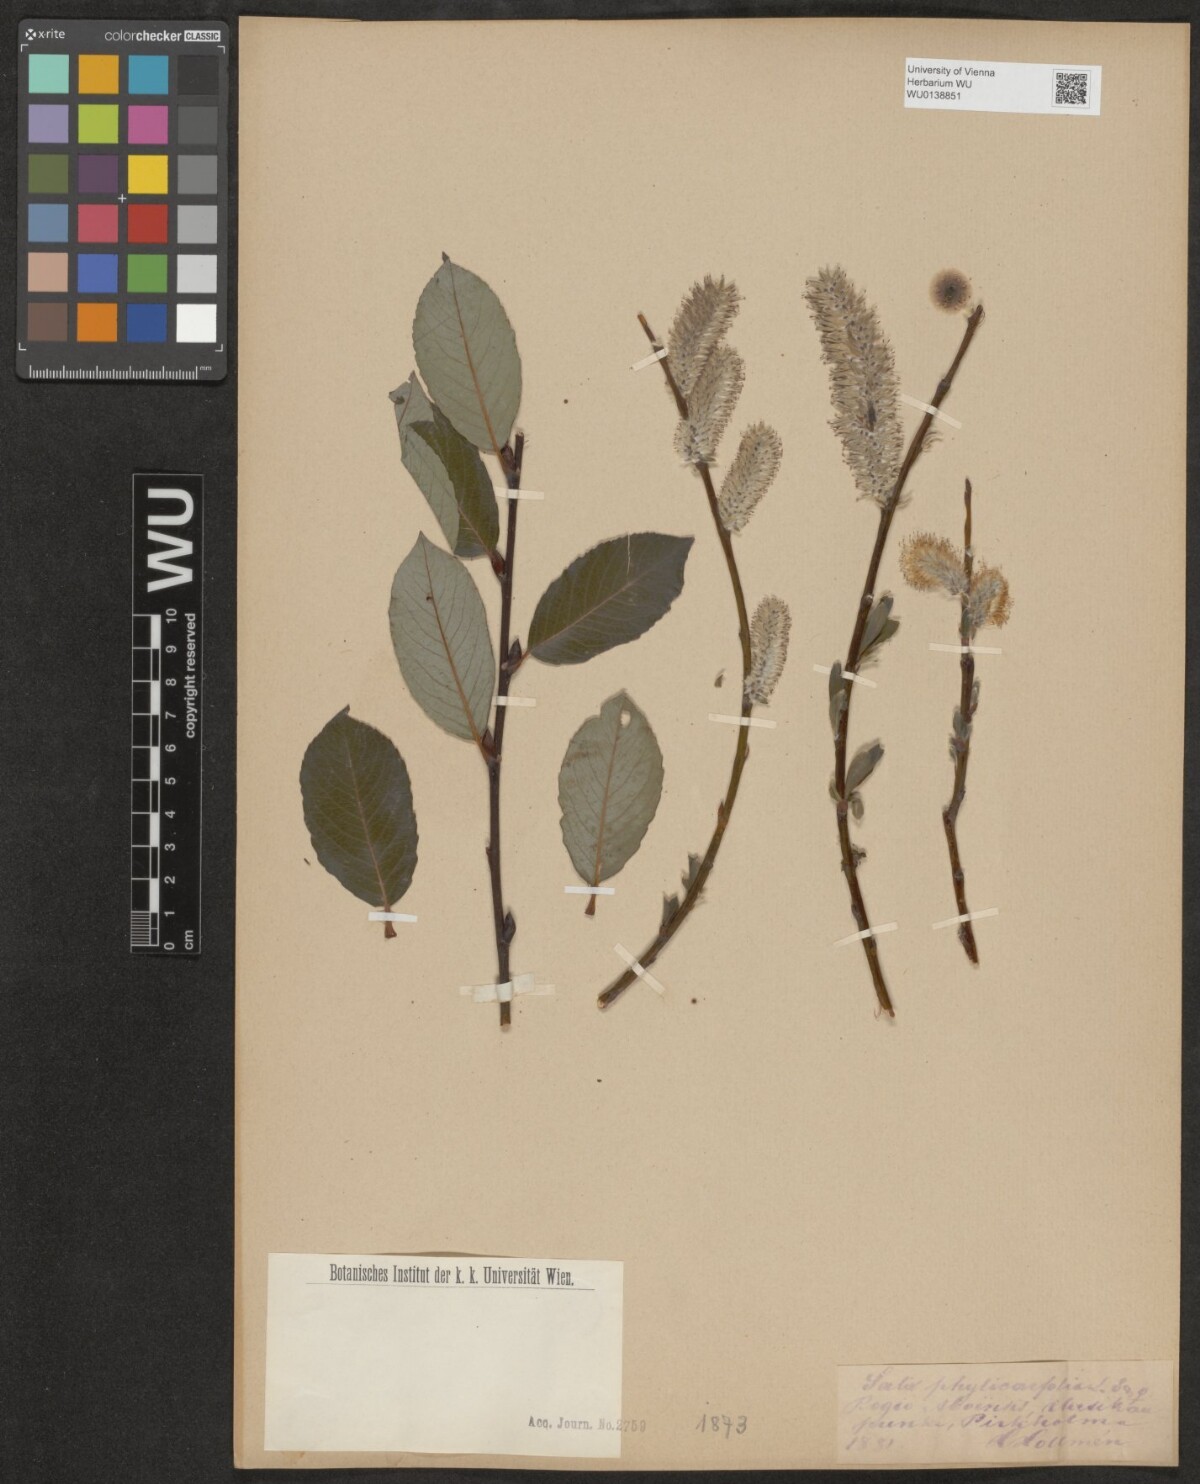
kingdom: Plantae
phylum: Tracheophyta
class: Magnoliopsida
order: Malpighiales
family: Salicaceae
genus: Salix
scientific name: Salix phylicifolia
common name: Tea-leaved willow
